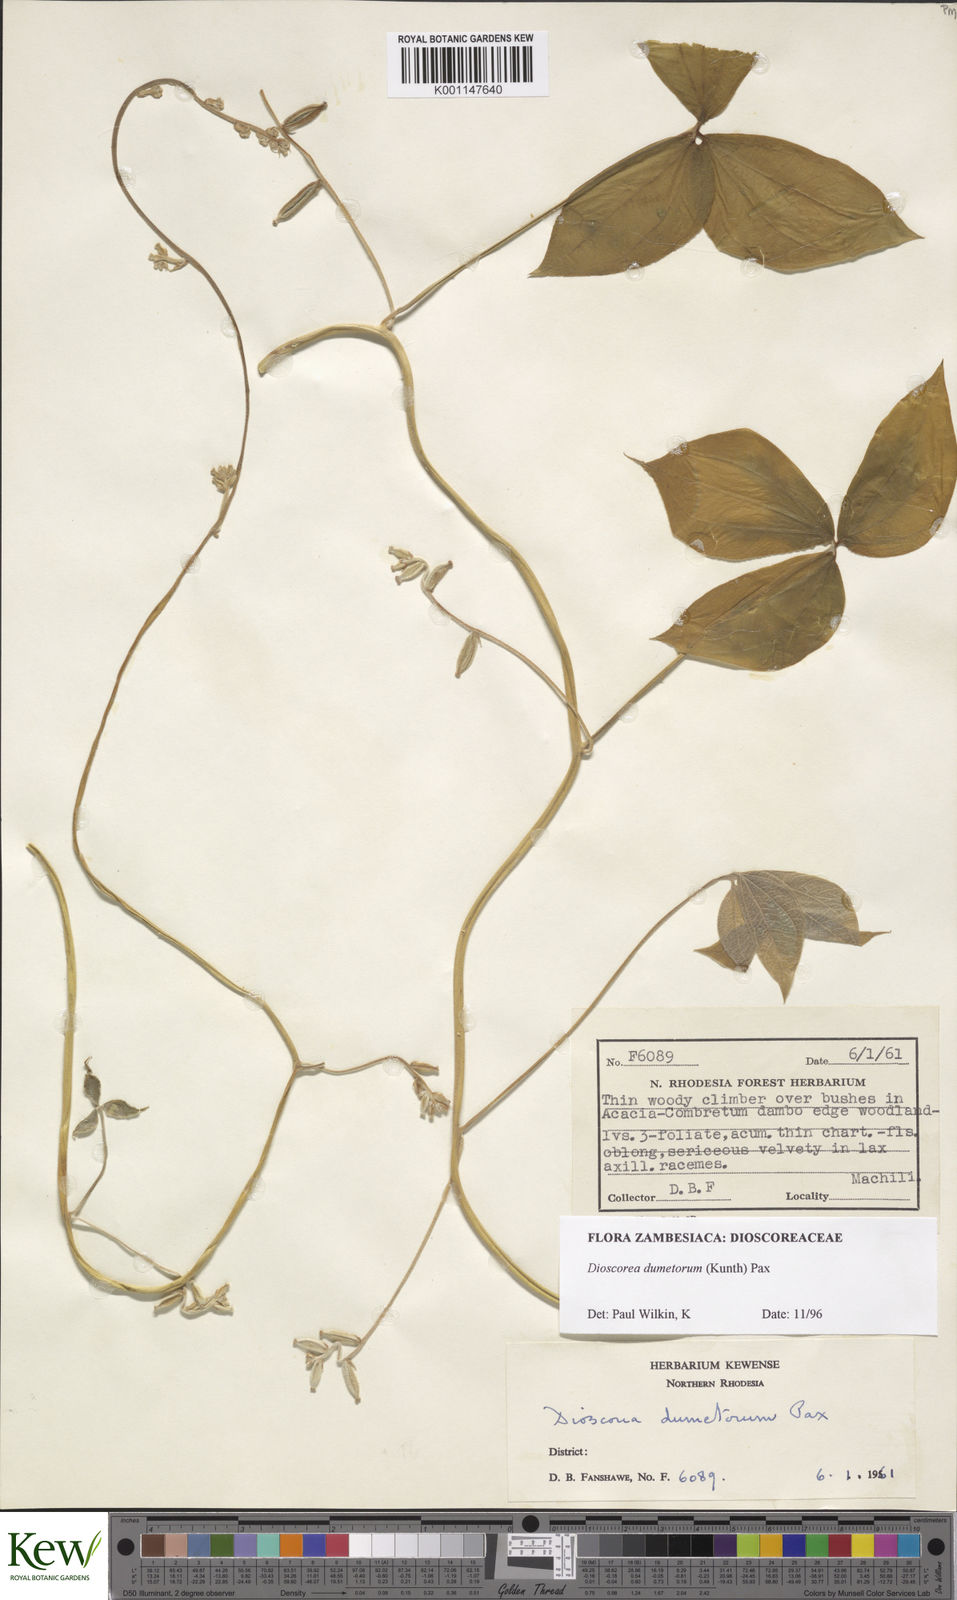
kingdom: Plantae
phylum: Tracheophyta
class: Liliopsida
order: Dioscoreales
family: Dioscoreaceae
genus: Dioscorea
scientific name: Dioscorea dumetorum
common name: African bitter yam
